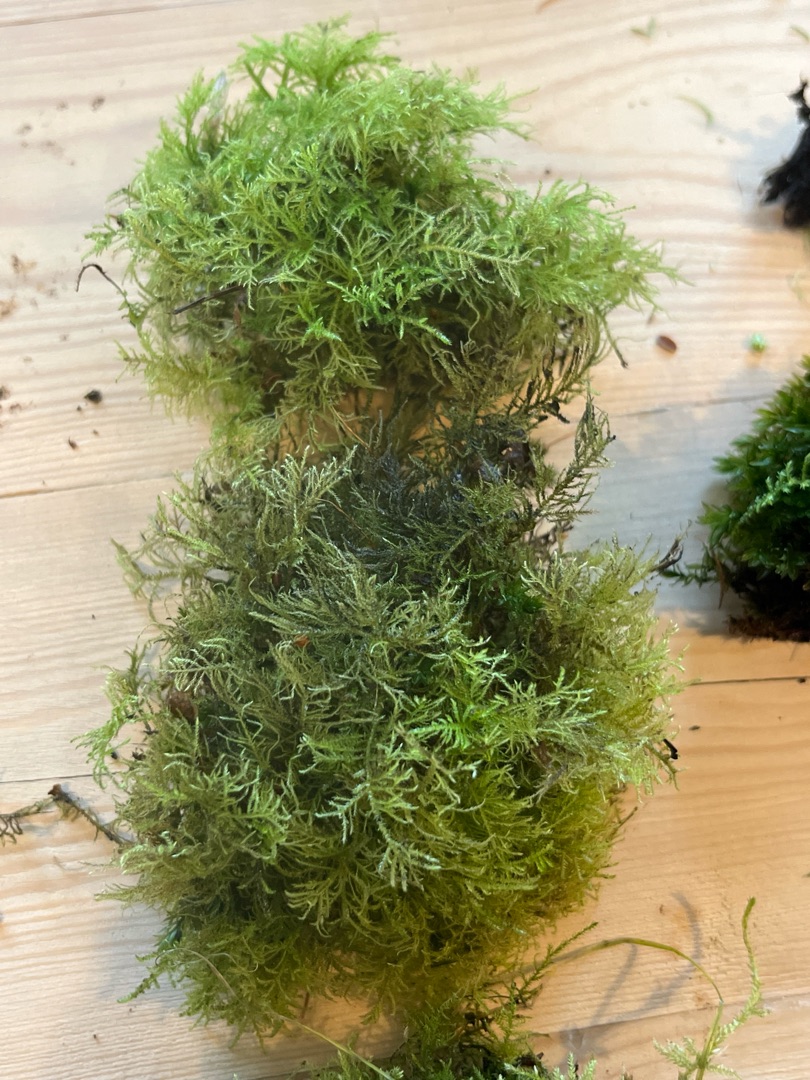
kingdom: Plantae
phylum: Bryophyta
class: Bryopsida
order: Hypnales
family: Brachytheciaceae
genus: Kindbergia
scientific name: Kindbergia praelonga
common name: Forskelligbladet vortetand
